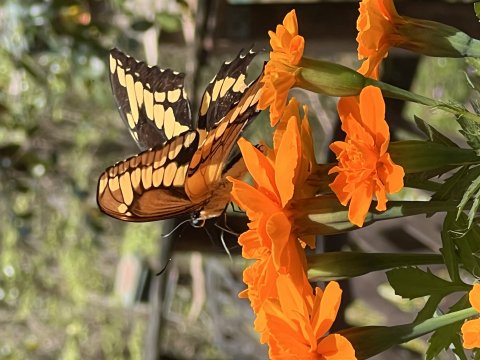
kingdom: Animalia
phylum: Arthropoda
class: Insecta
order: Lepidoptera
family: Papilionidae
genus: Papilio
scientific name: Papilio cresphontes
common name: Eastern Giant Swallowtail
